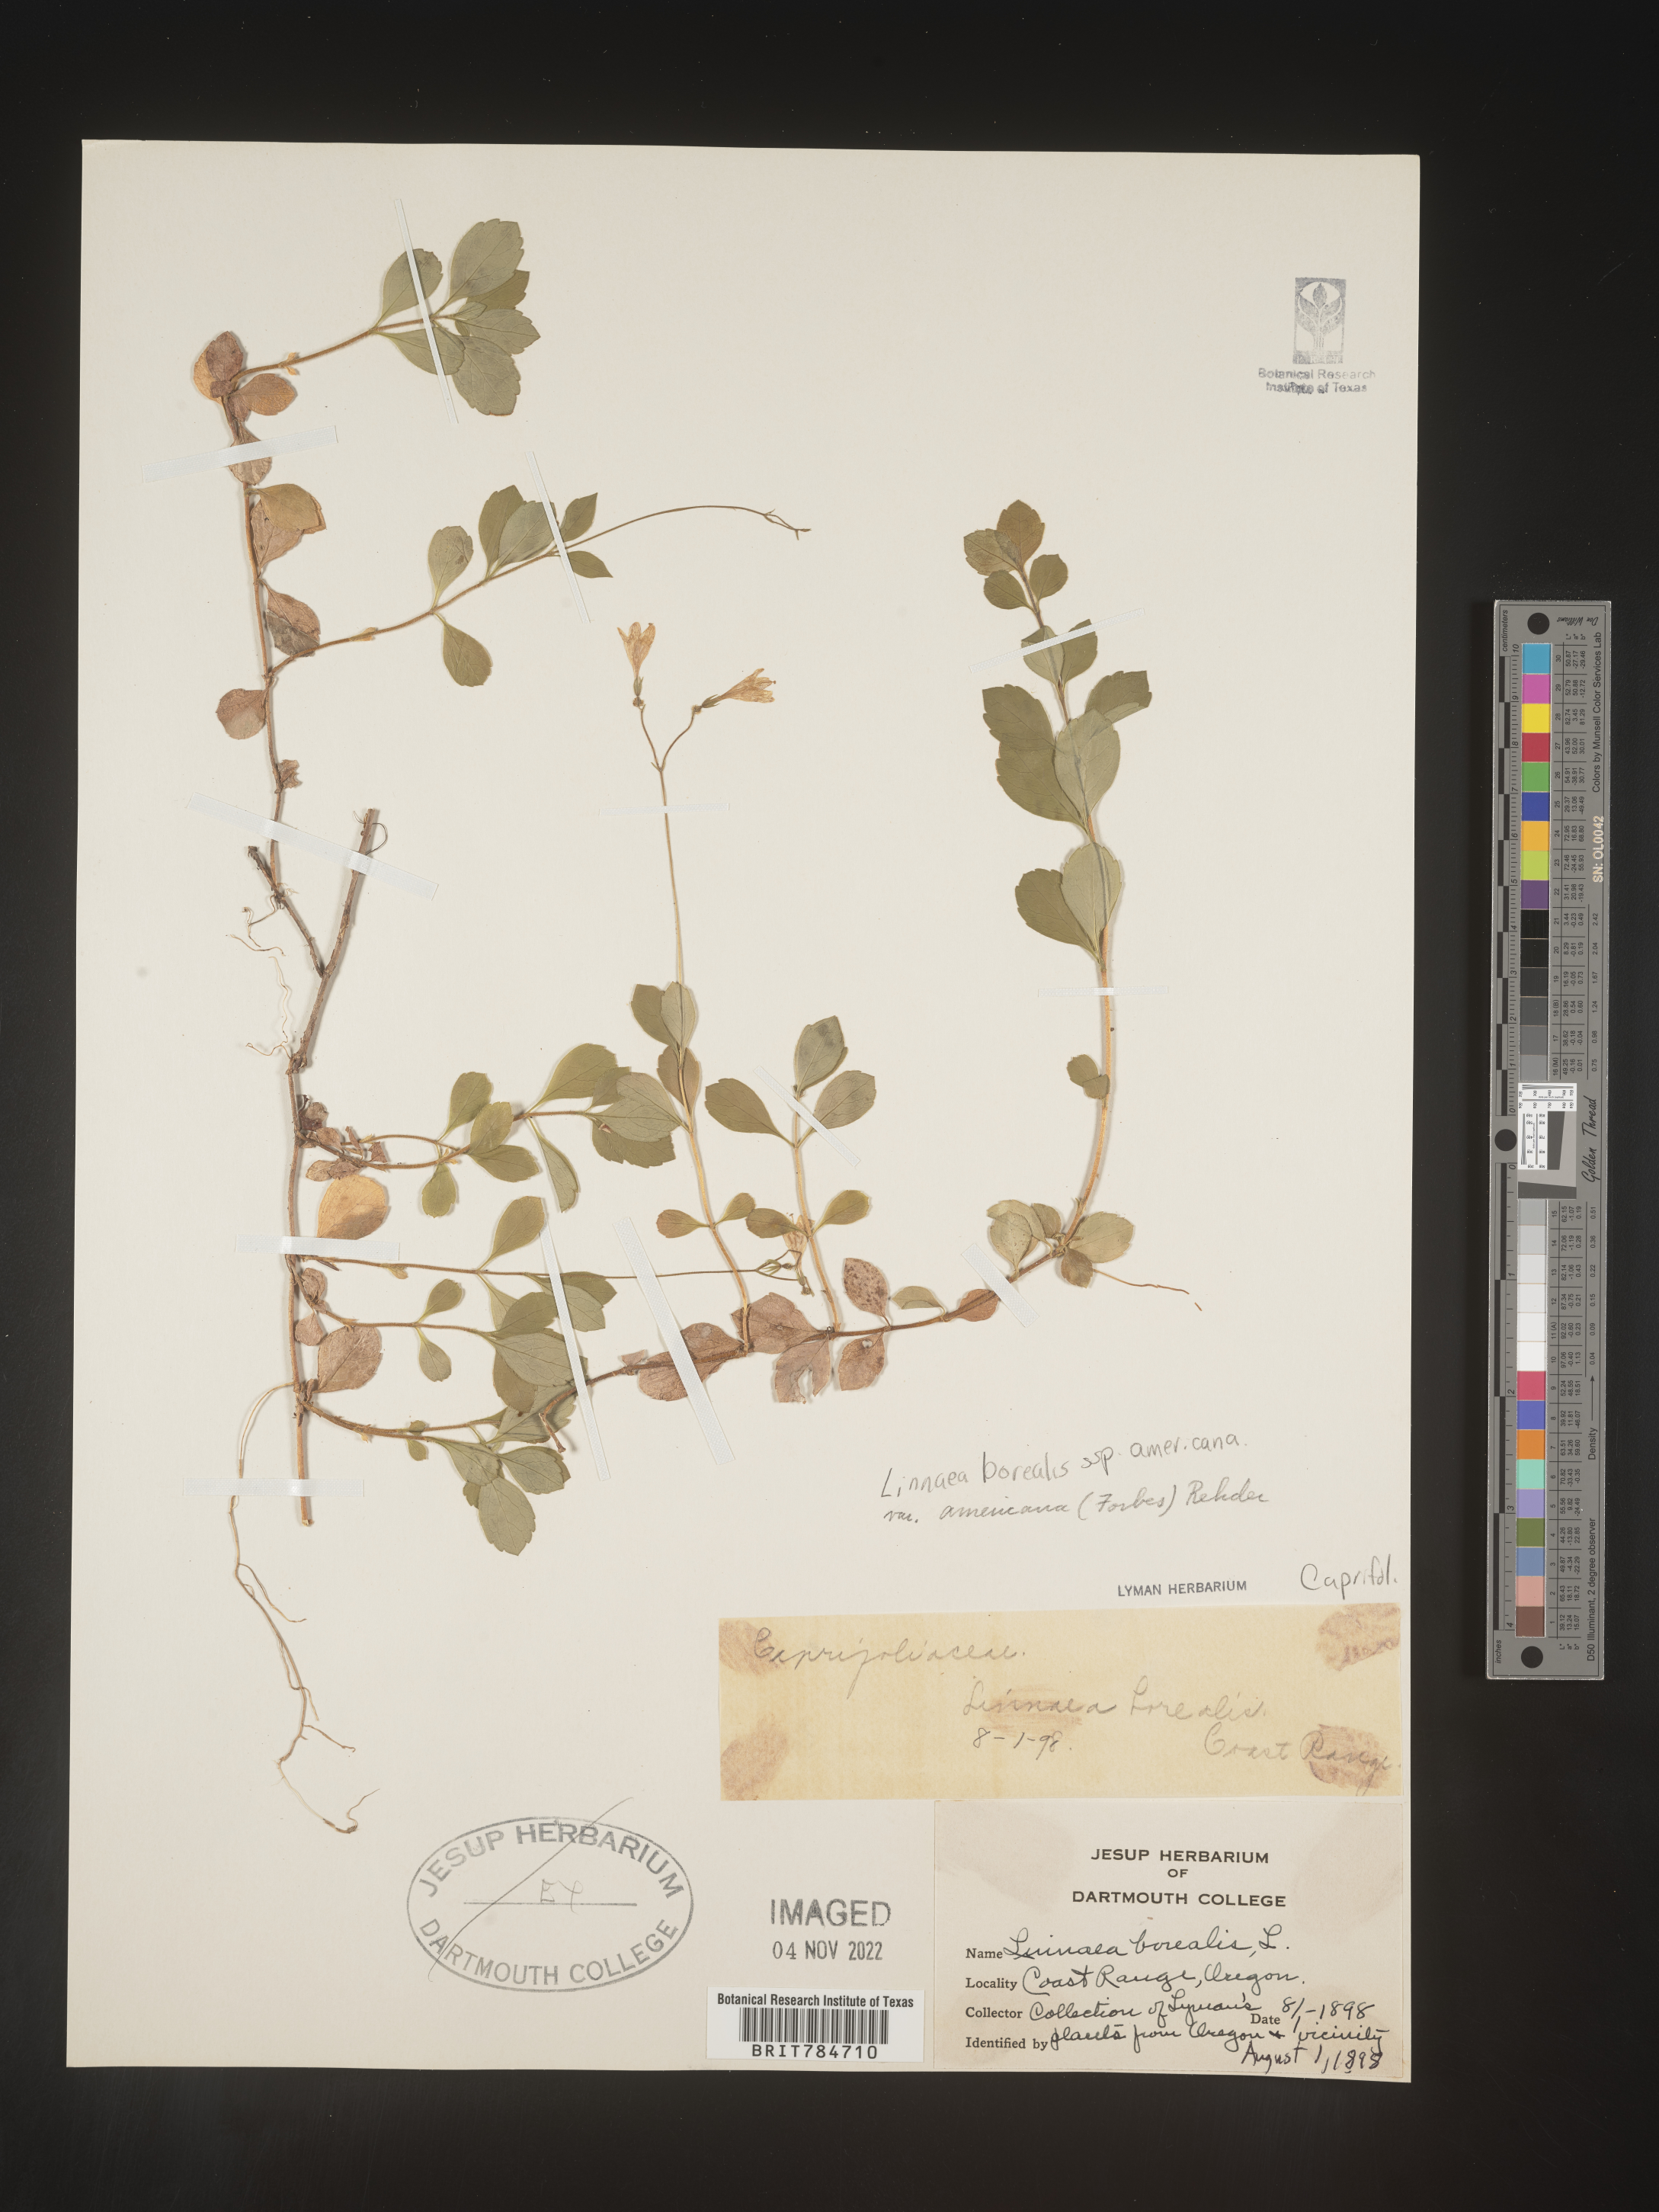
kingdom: Plantae
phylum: Tracheophyta
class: Magnoliopsida
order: Dipsacales
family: Caprifoliaceae
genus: Linnaea
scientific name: Linnaea borealis
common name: Twinflower
